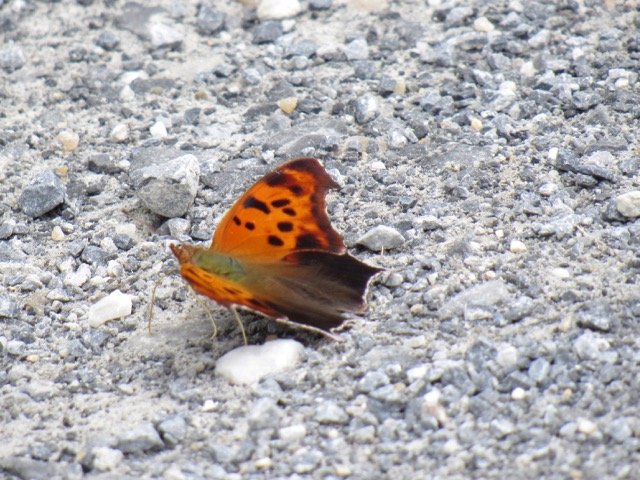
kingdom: Animalia
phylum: Arthropoda
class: Insecta
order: Lepidoptera
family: Nymphalidae
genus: Polygonia
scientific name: Polygonia interrogationis
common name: Question Mark
